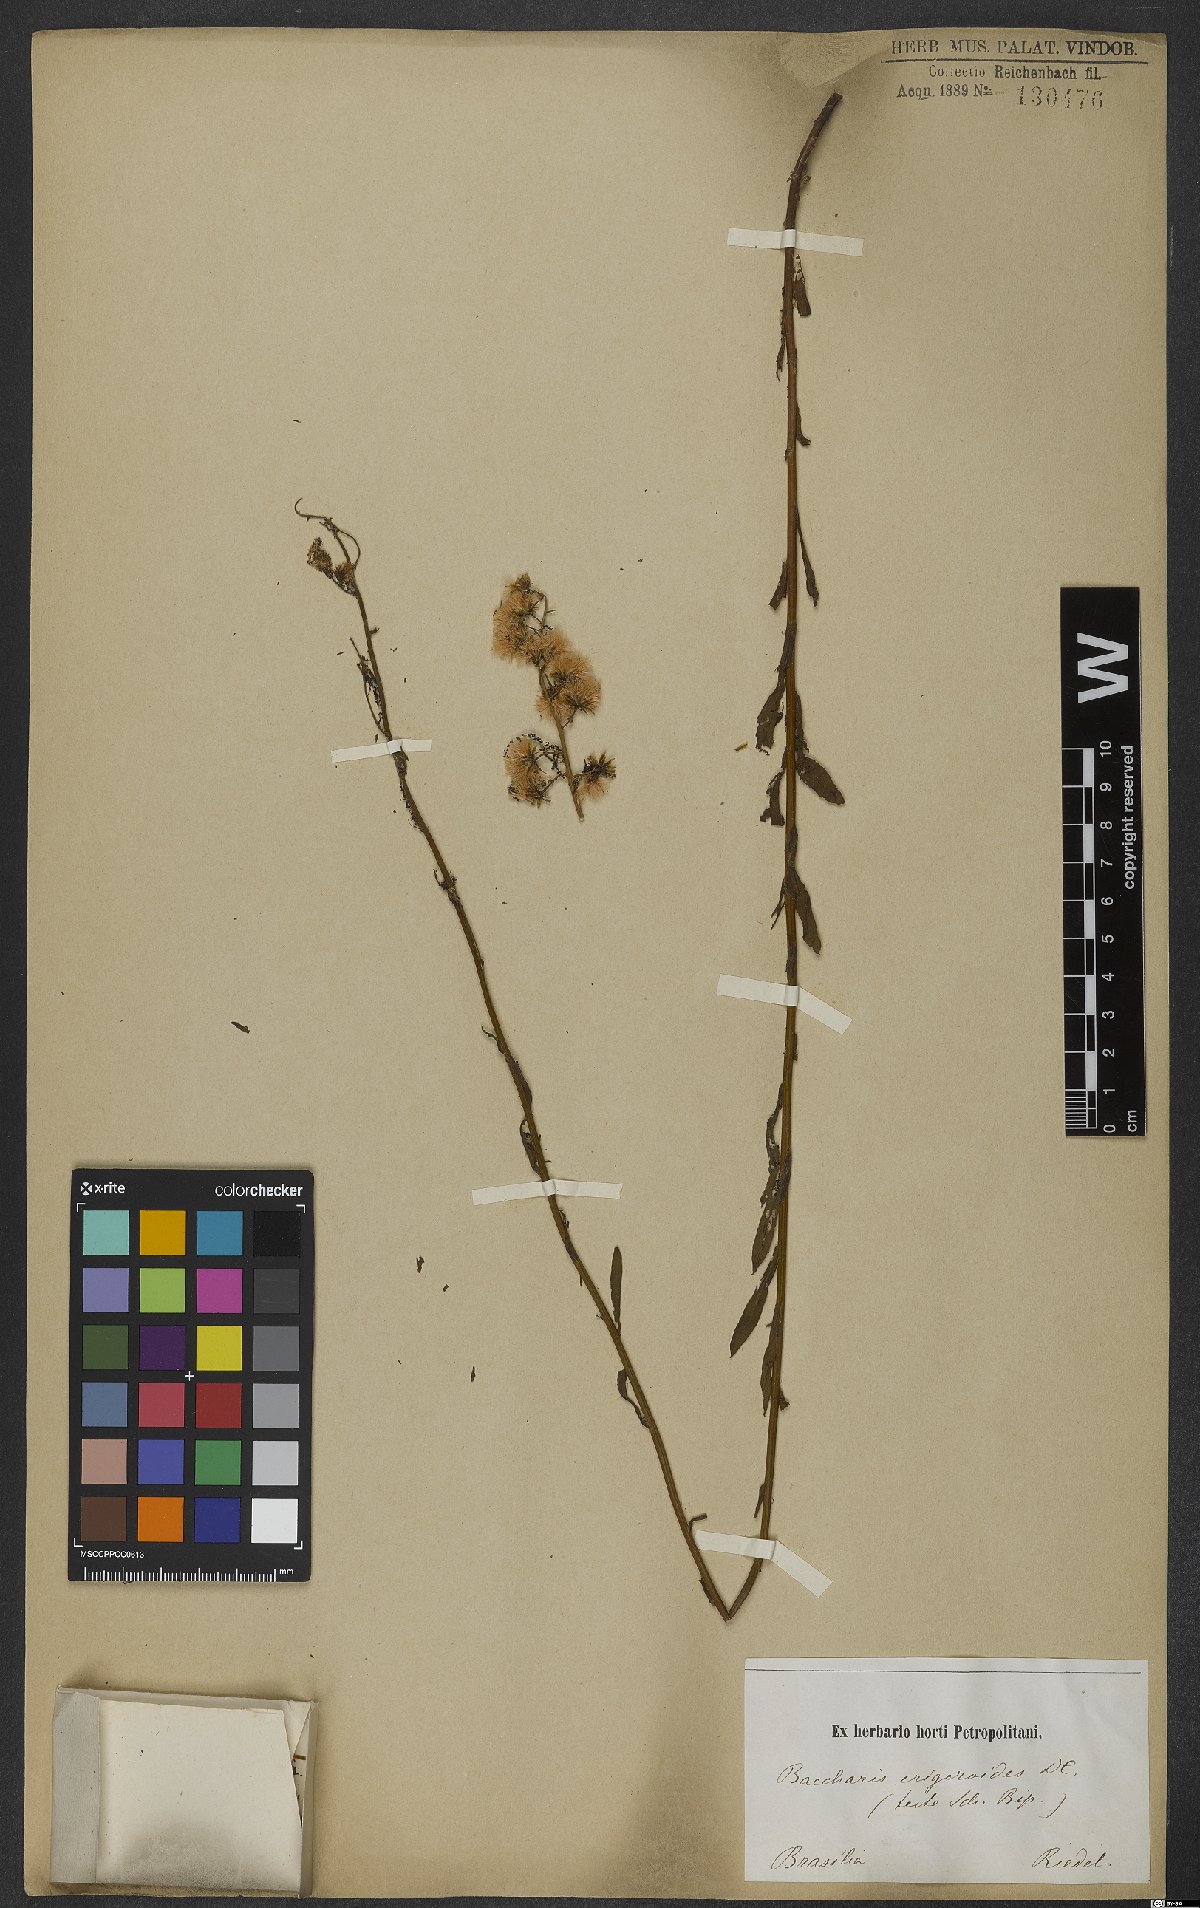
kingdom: Plantae
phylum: Tracheophyta
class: Magnoliopsida
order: Asterales
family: Asteraceae
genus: Baccharis
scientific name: Baccharis erigeroides
